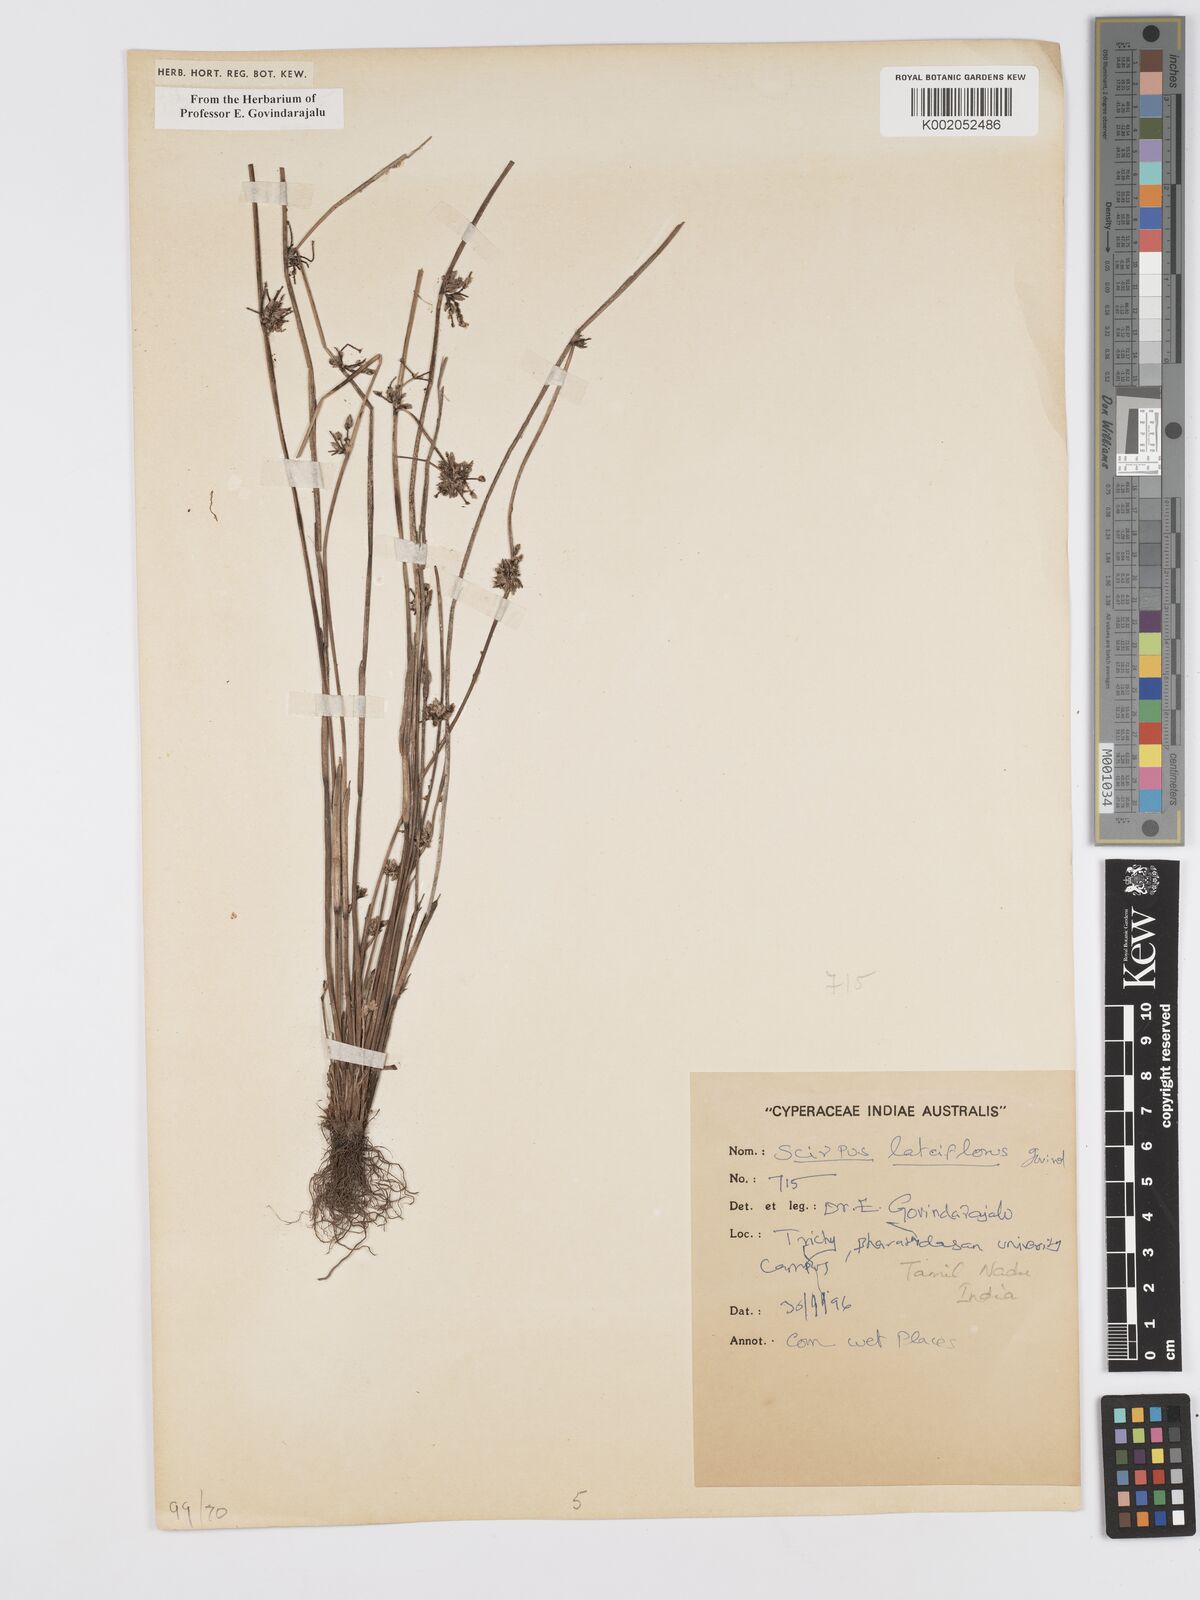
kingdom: Plantae
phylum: Tracheophyta
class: Liliopsida
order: Poales
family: Cyperaceae
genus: Scirpus
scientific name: Scirpus
